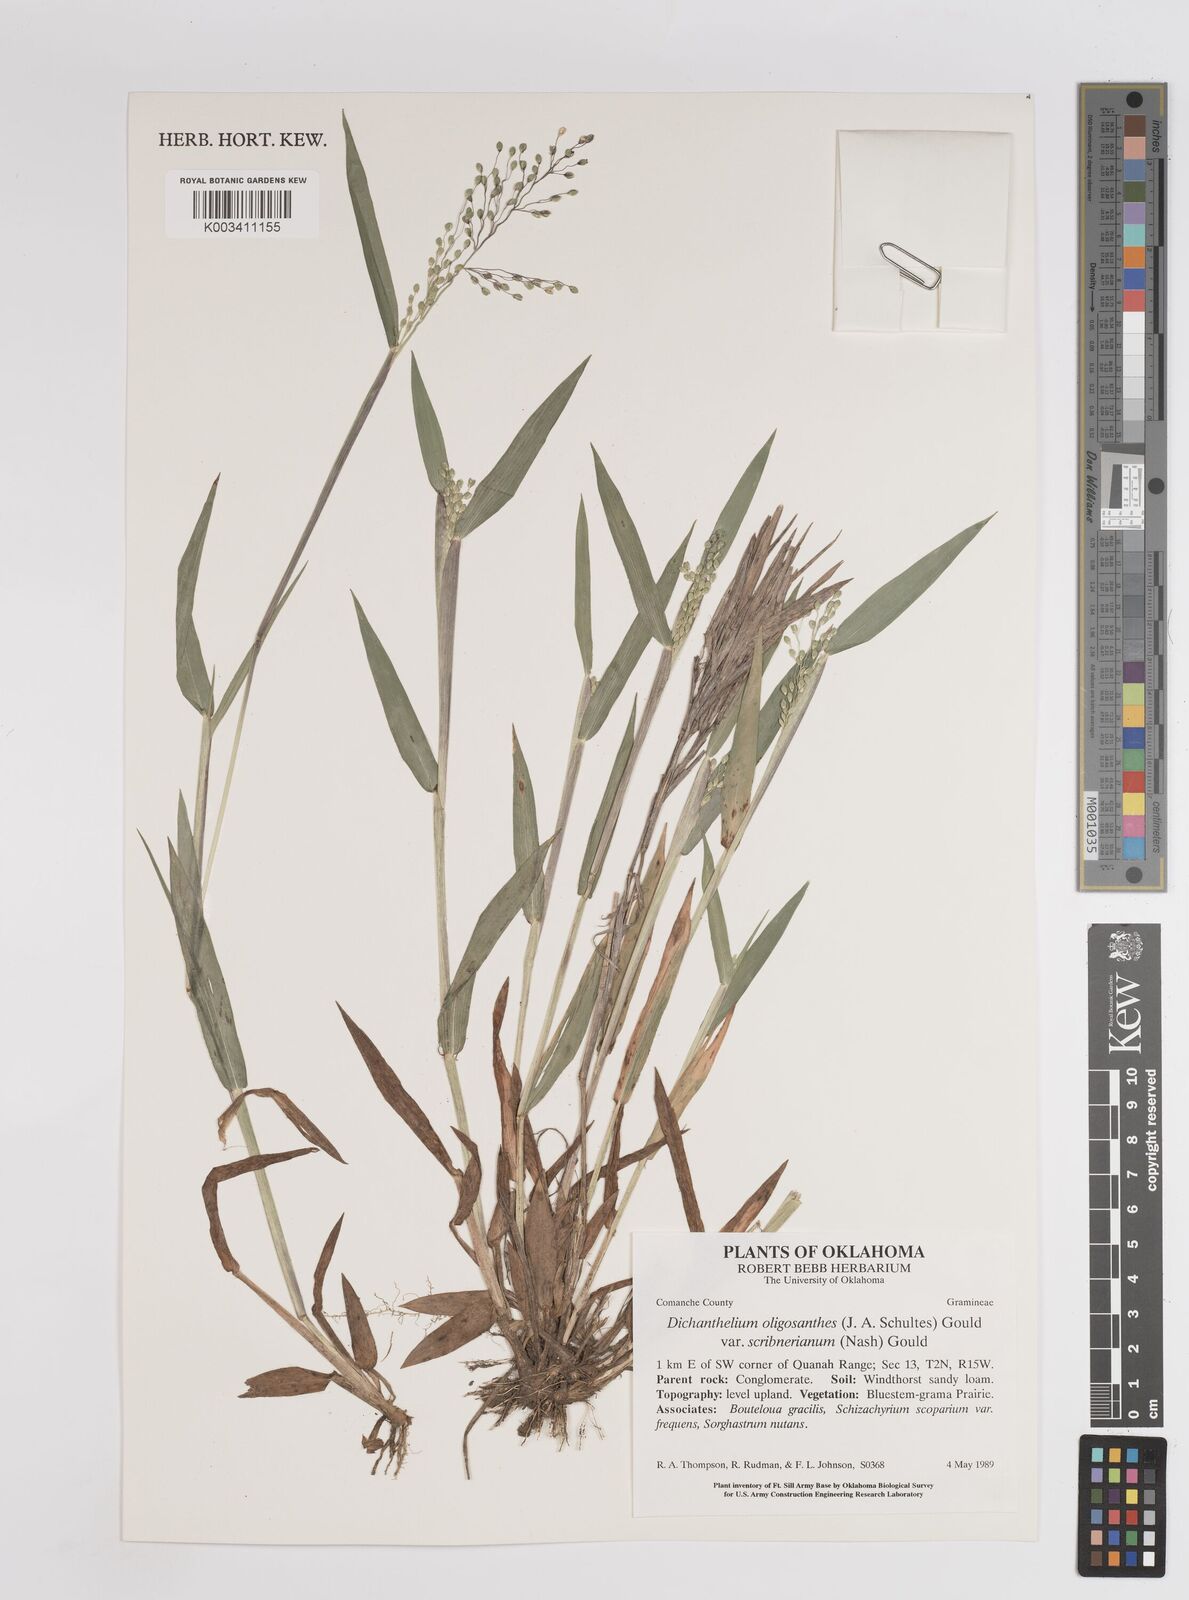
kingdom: Plantae
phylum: Tracheophyta
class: Liliopsida
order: Poales
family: Poaceae
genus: Dichanthelium
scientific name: Dichanthelium oligosanthes
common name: Few-anther obscuregrass
